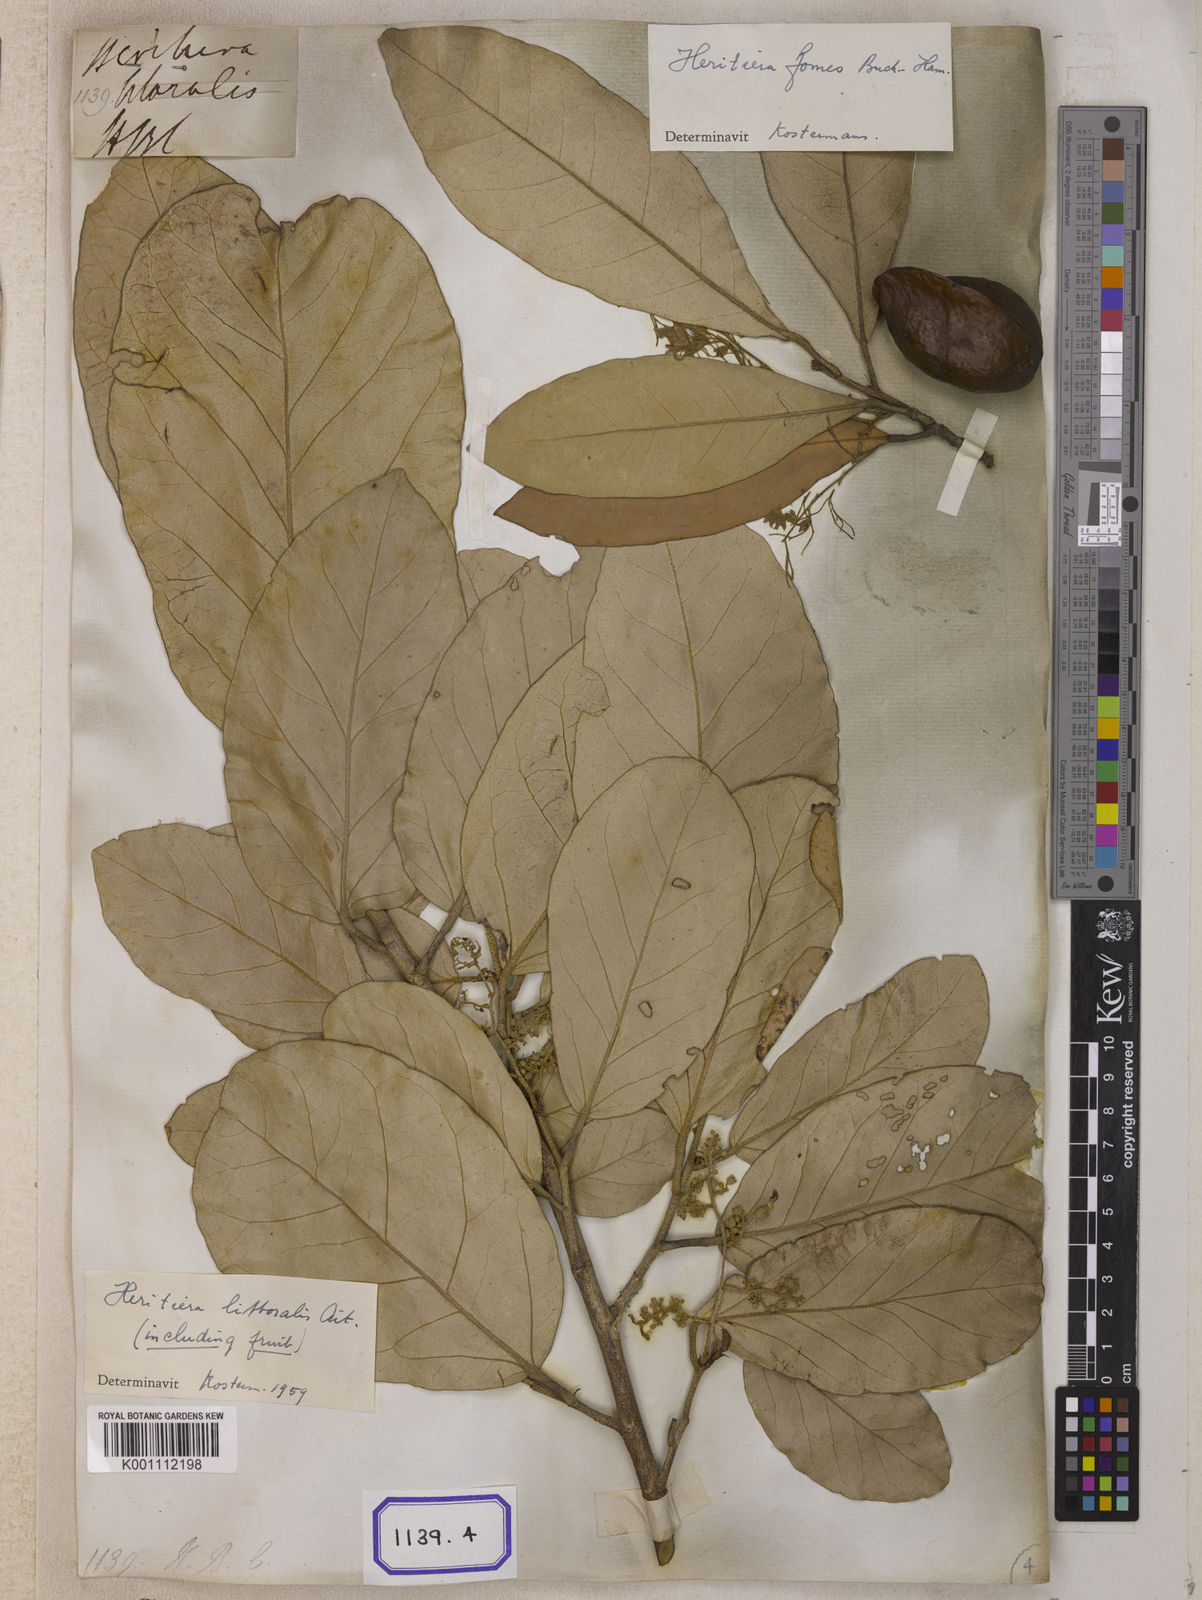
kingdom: Plantae
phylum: Tracheophyta
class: Magnoliopsida
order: Malvales
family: Malvaceae
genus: Heritiera
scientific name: Heritiera
